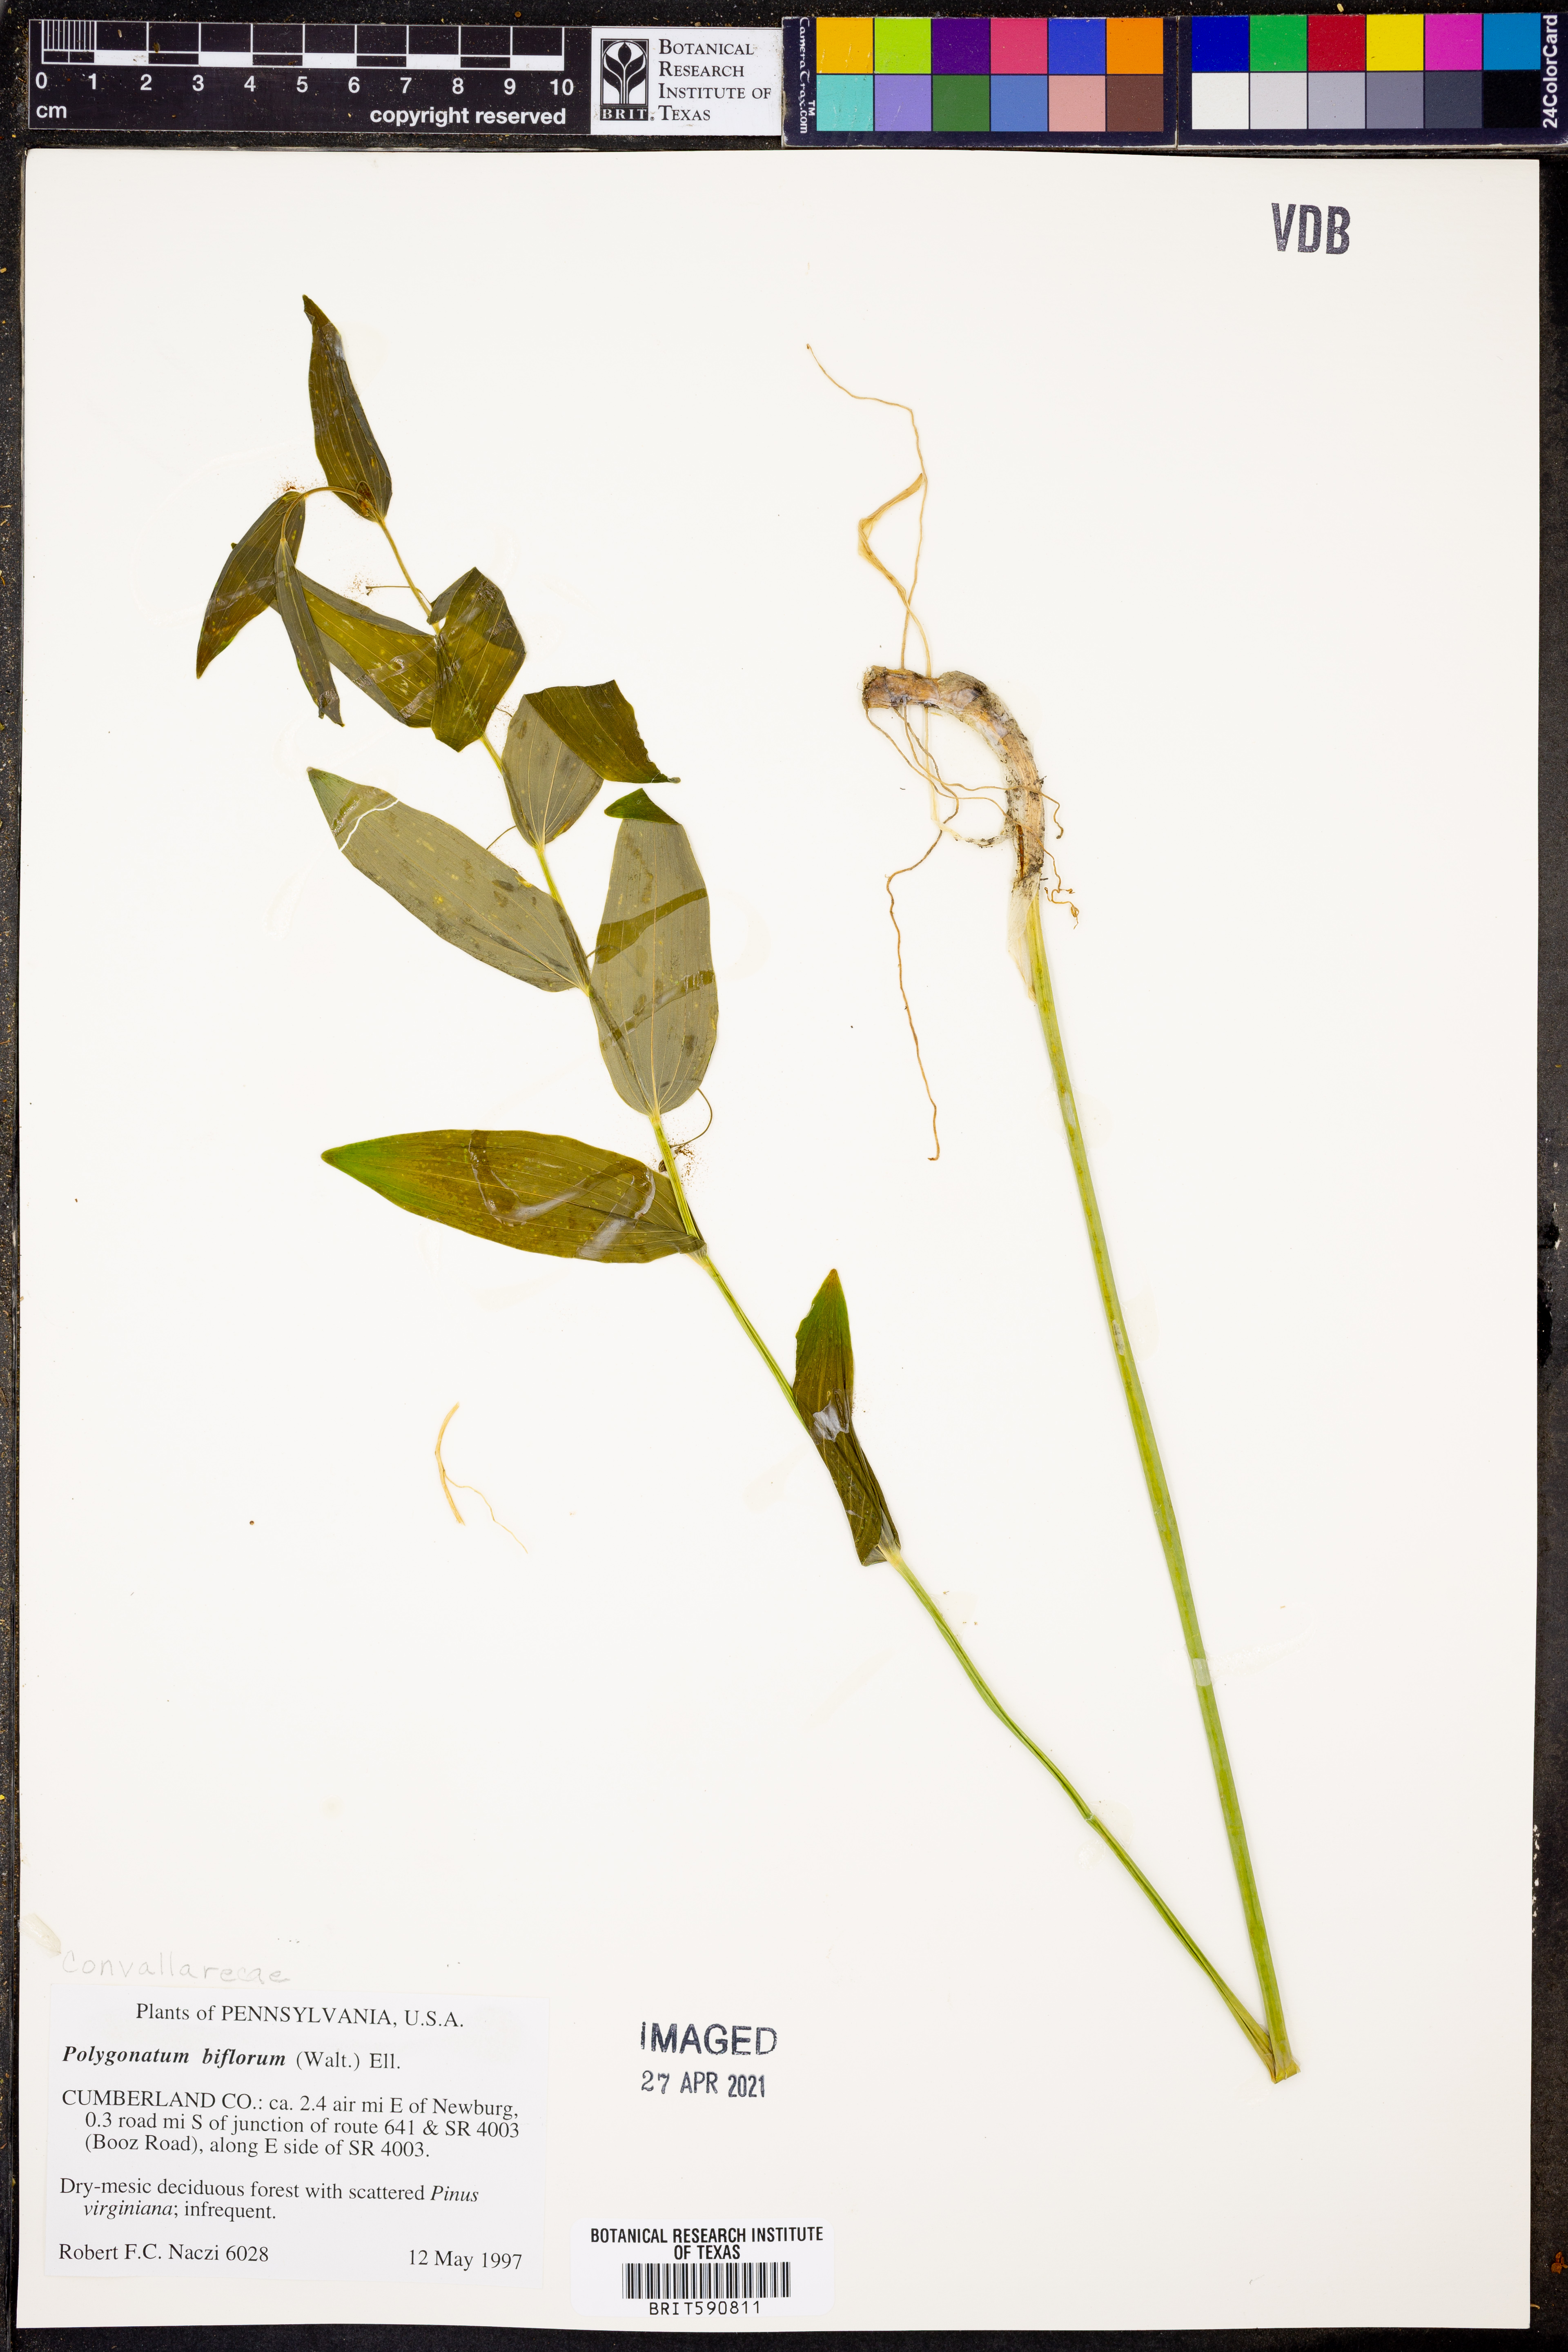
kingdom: Plantae
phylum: Tracheophyta
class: Liliopsida
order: Asparagales
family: Asparagaceae
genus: Polygonatum
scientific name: Polygonatum biflorum
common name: American solomon's-seal
